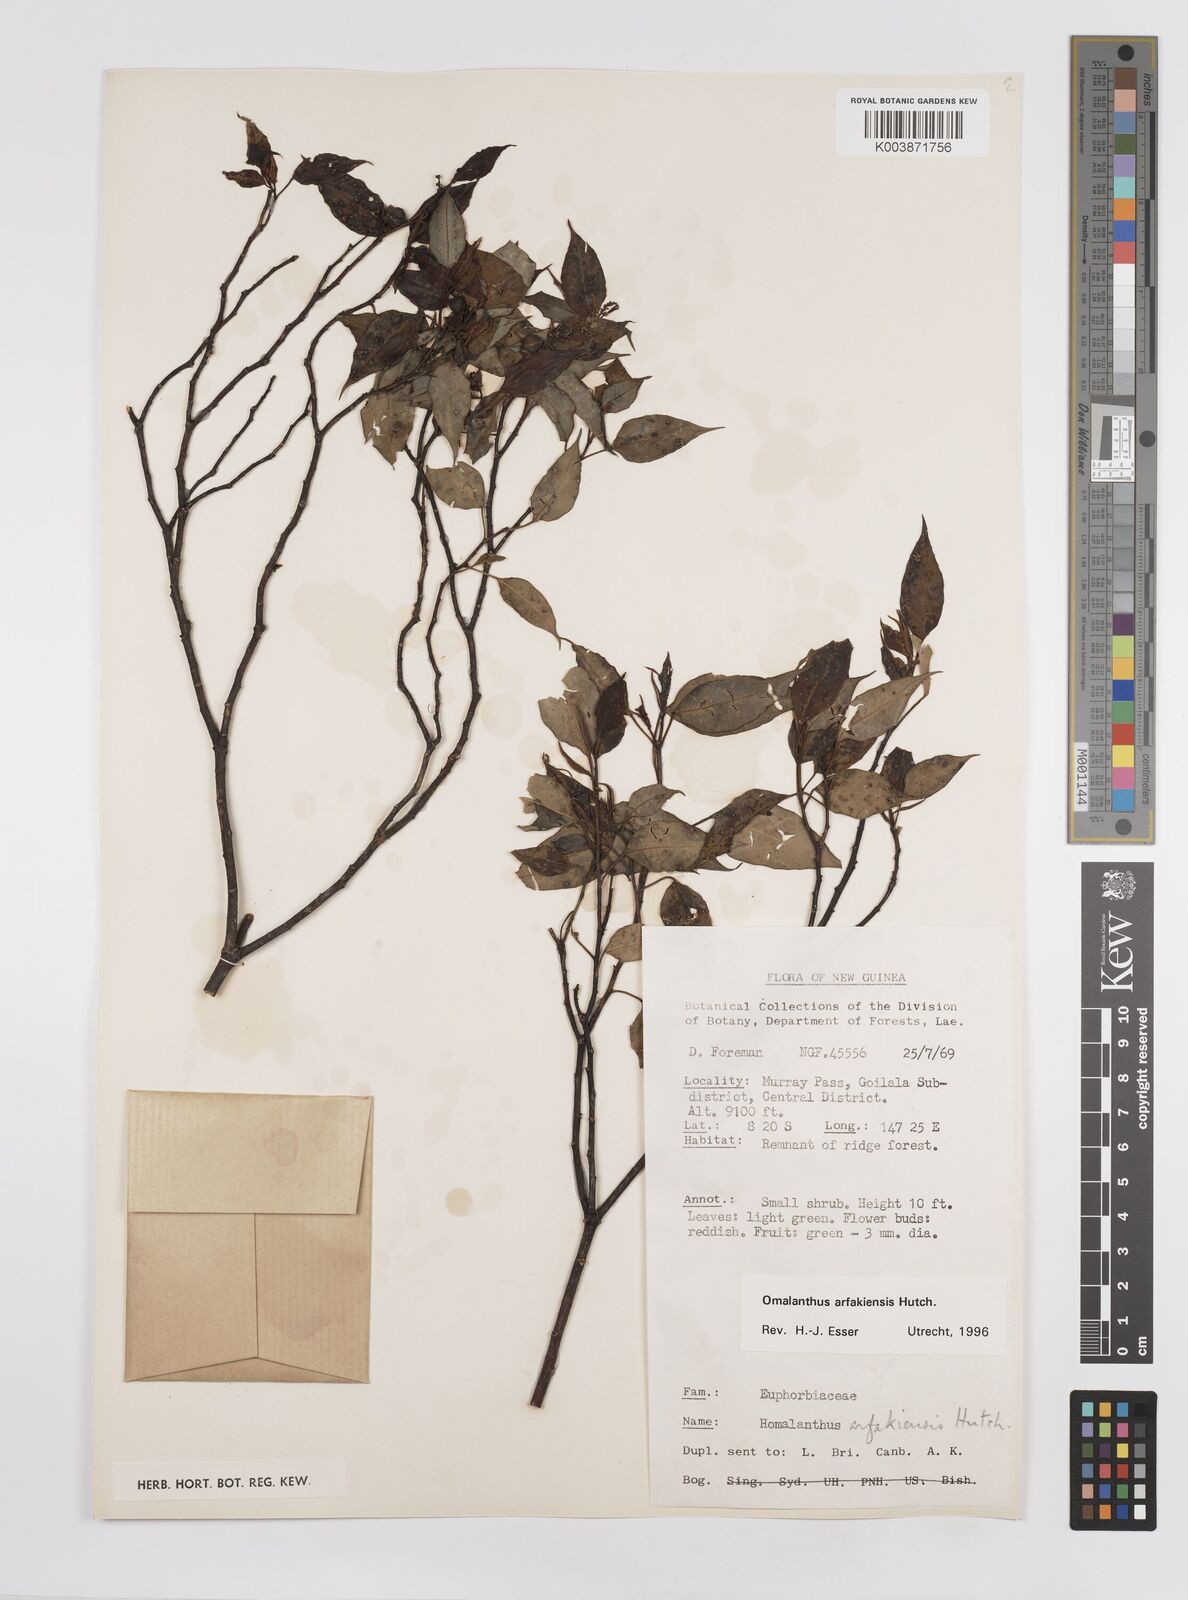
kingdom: Plantae
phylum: Tracheophyta
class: Magnoliopsida
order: Malpighiales
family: Euphorbiaceae
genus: Homalanthus
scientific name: Homalanthus arfakiensis
